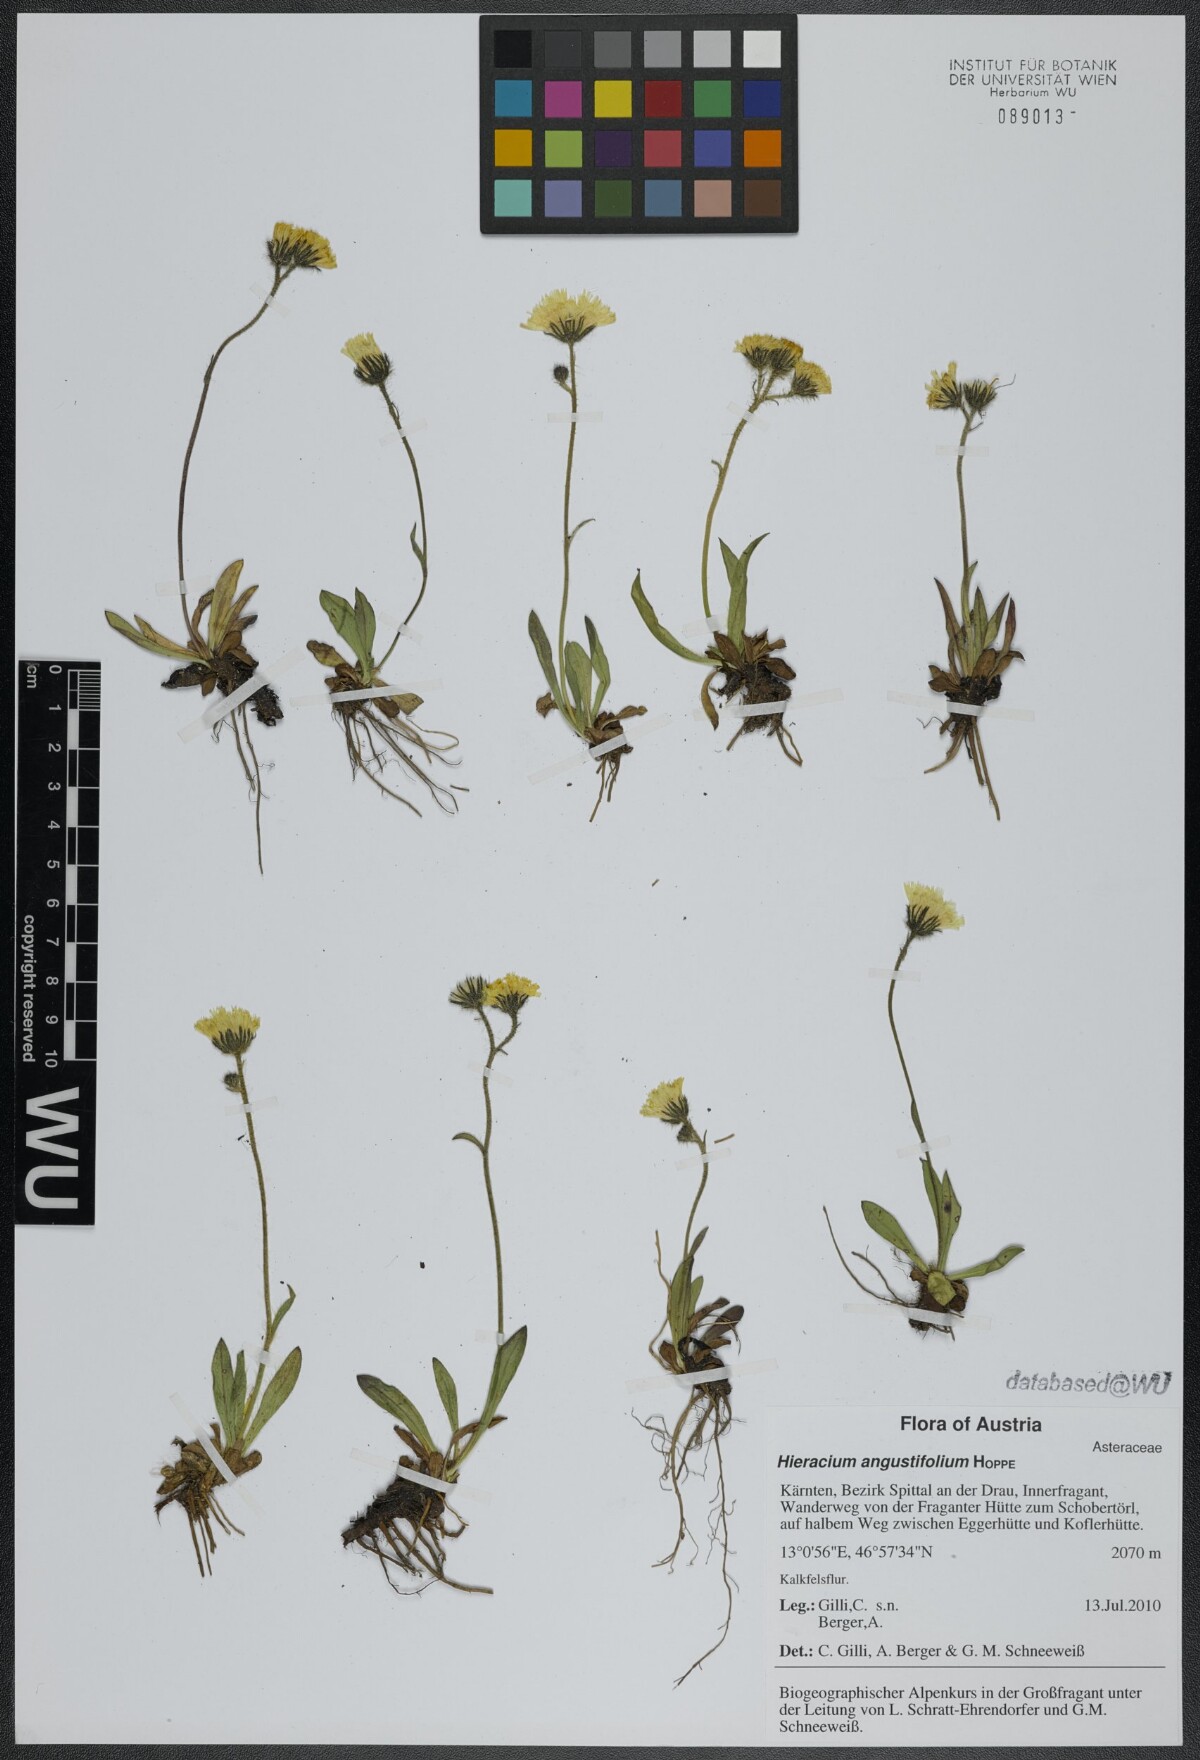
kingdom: Plantae
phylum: Tracheophyta
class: Magnoliopsida
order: Asterales
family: Asteraceae
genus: Pilosella
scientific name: Pilosella glacialis
